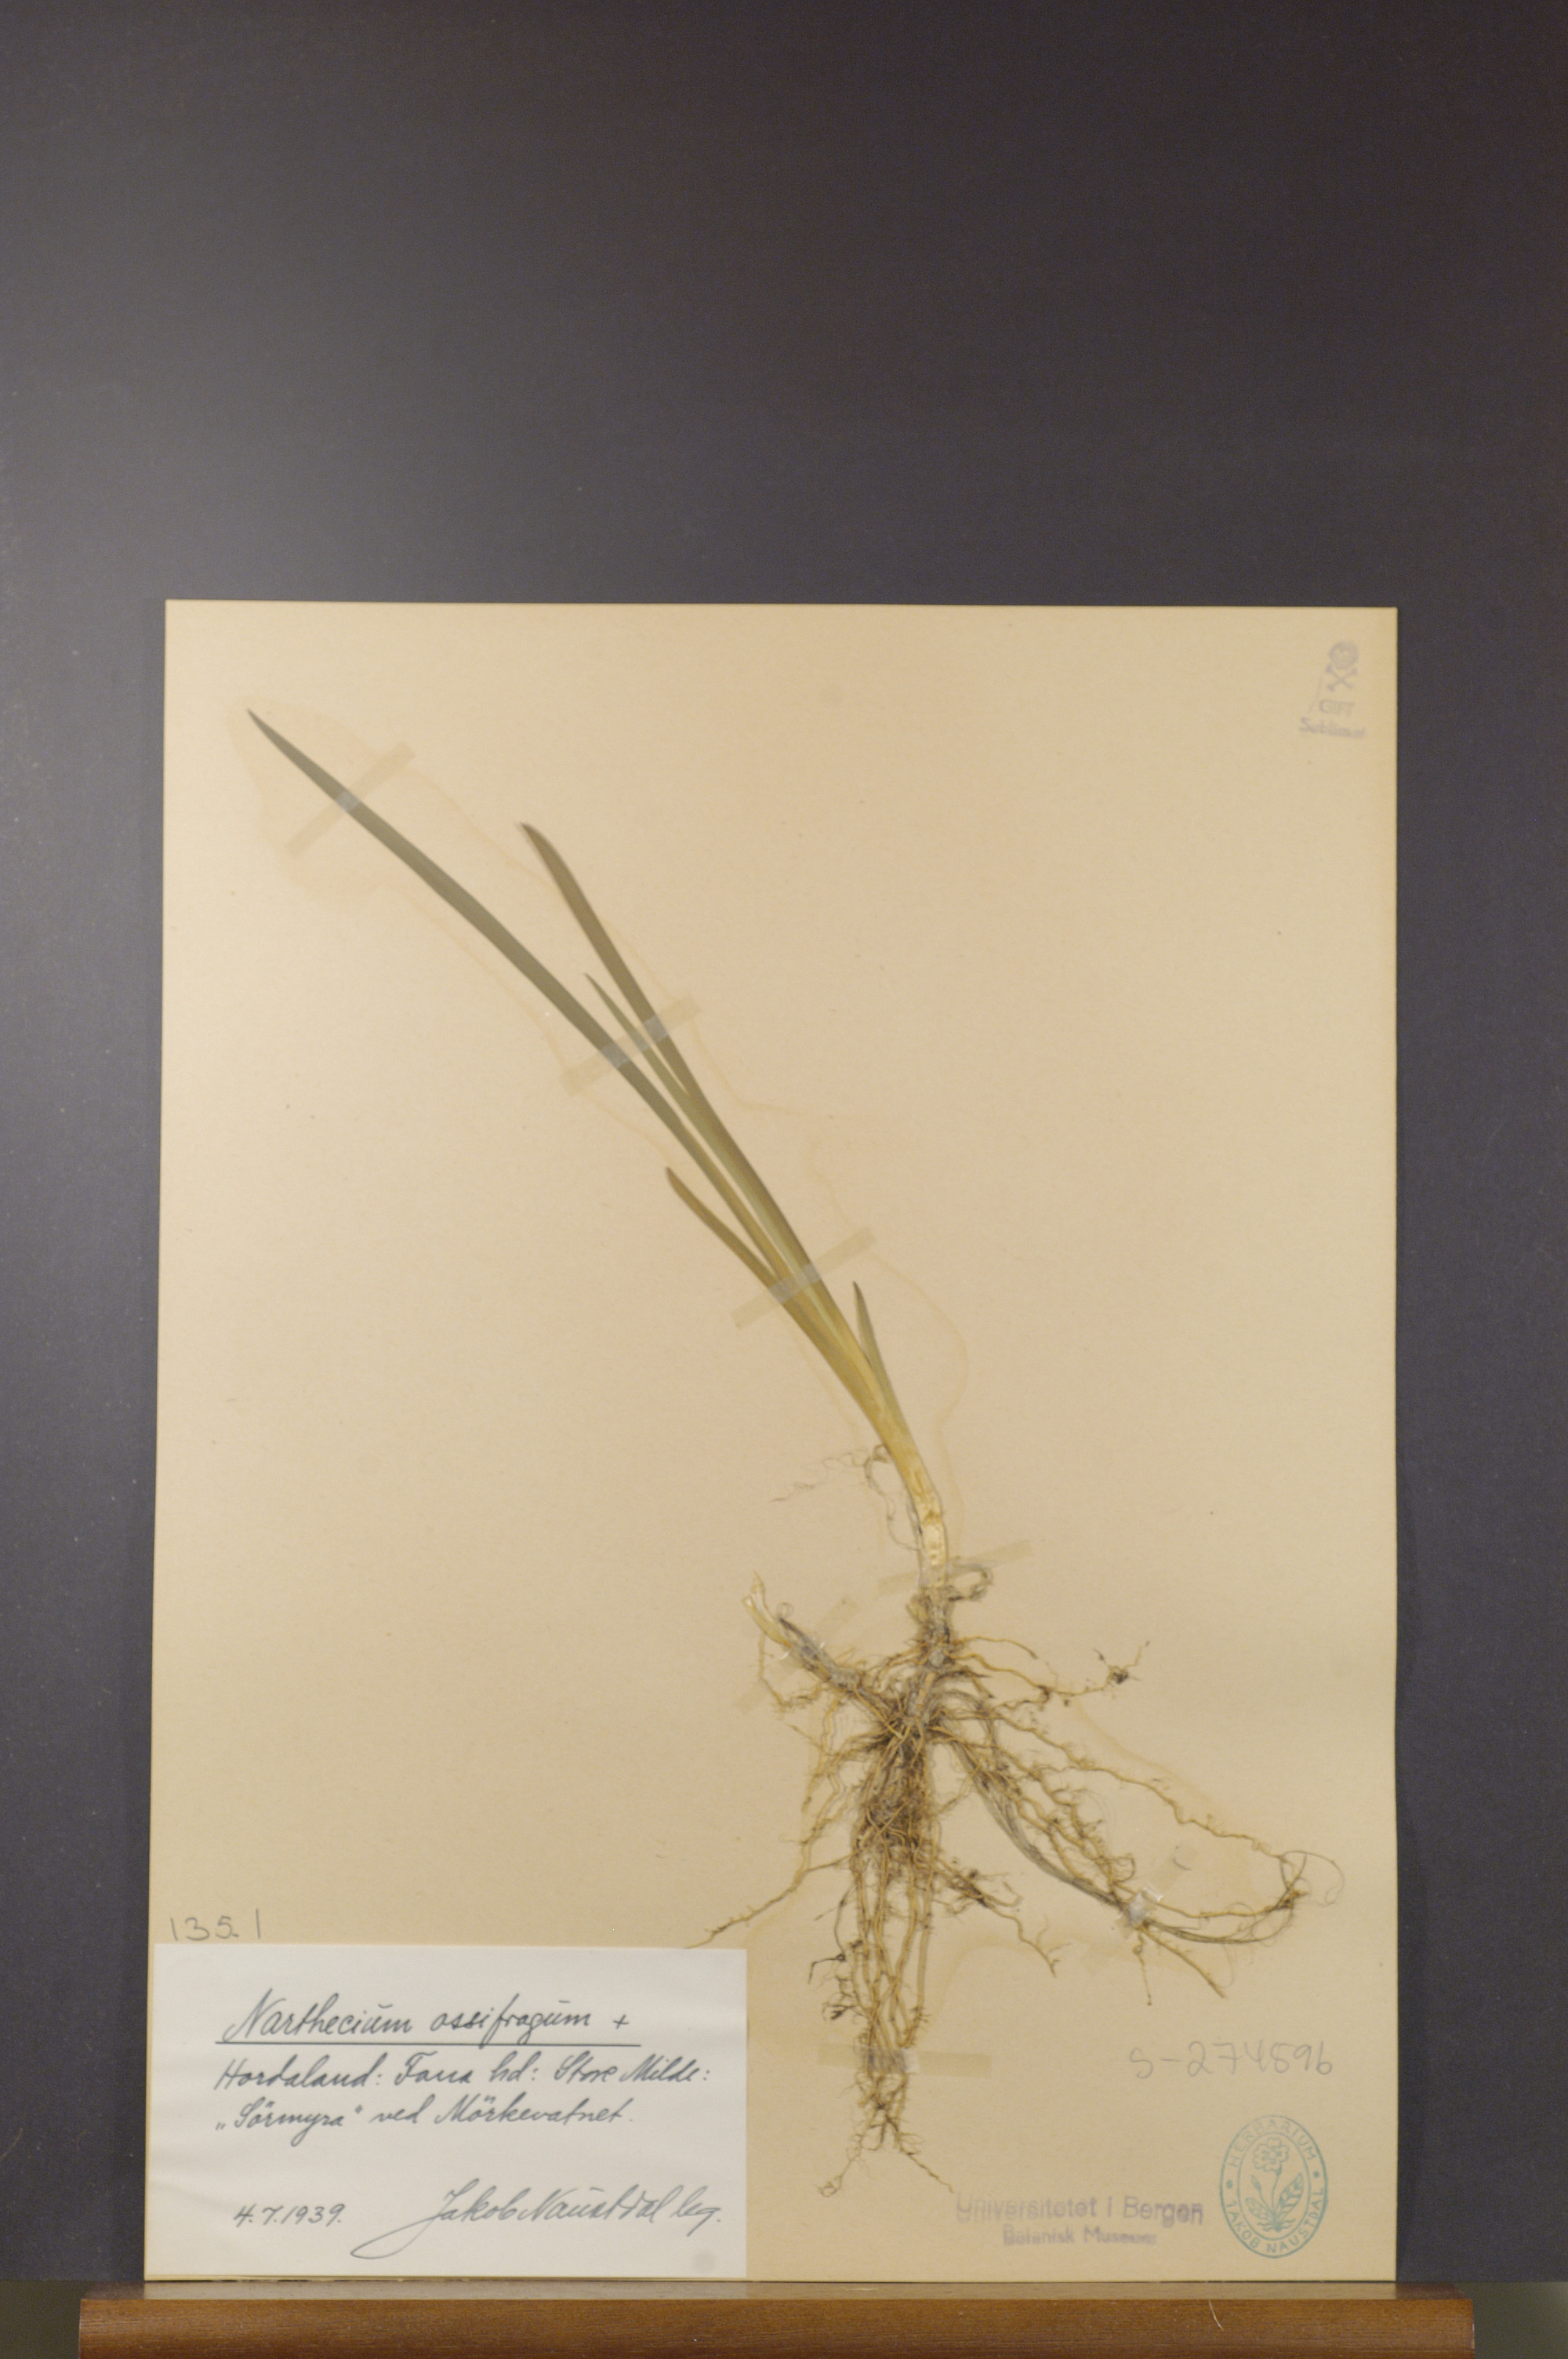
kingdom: Plantae
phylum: Tracheophyta
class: Liliopsida
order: Dioscoreales
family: Nartheciaceae
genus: Narthecium
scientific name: Narthecium ossifragum
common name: Bog asphodel
